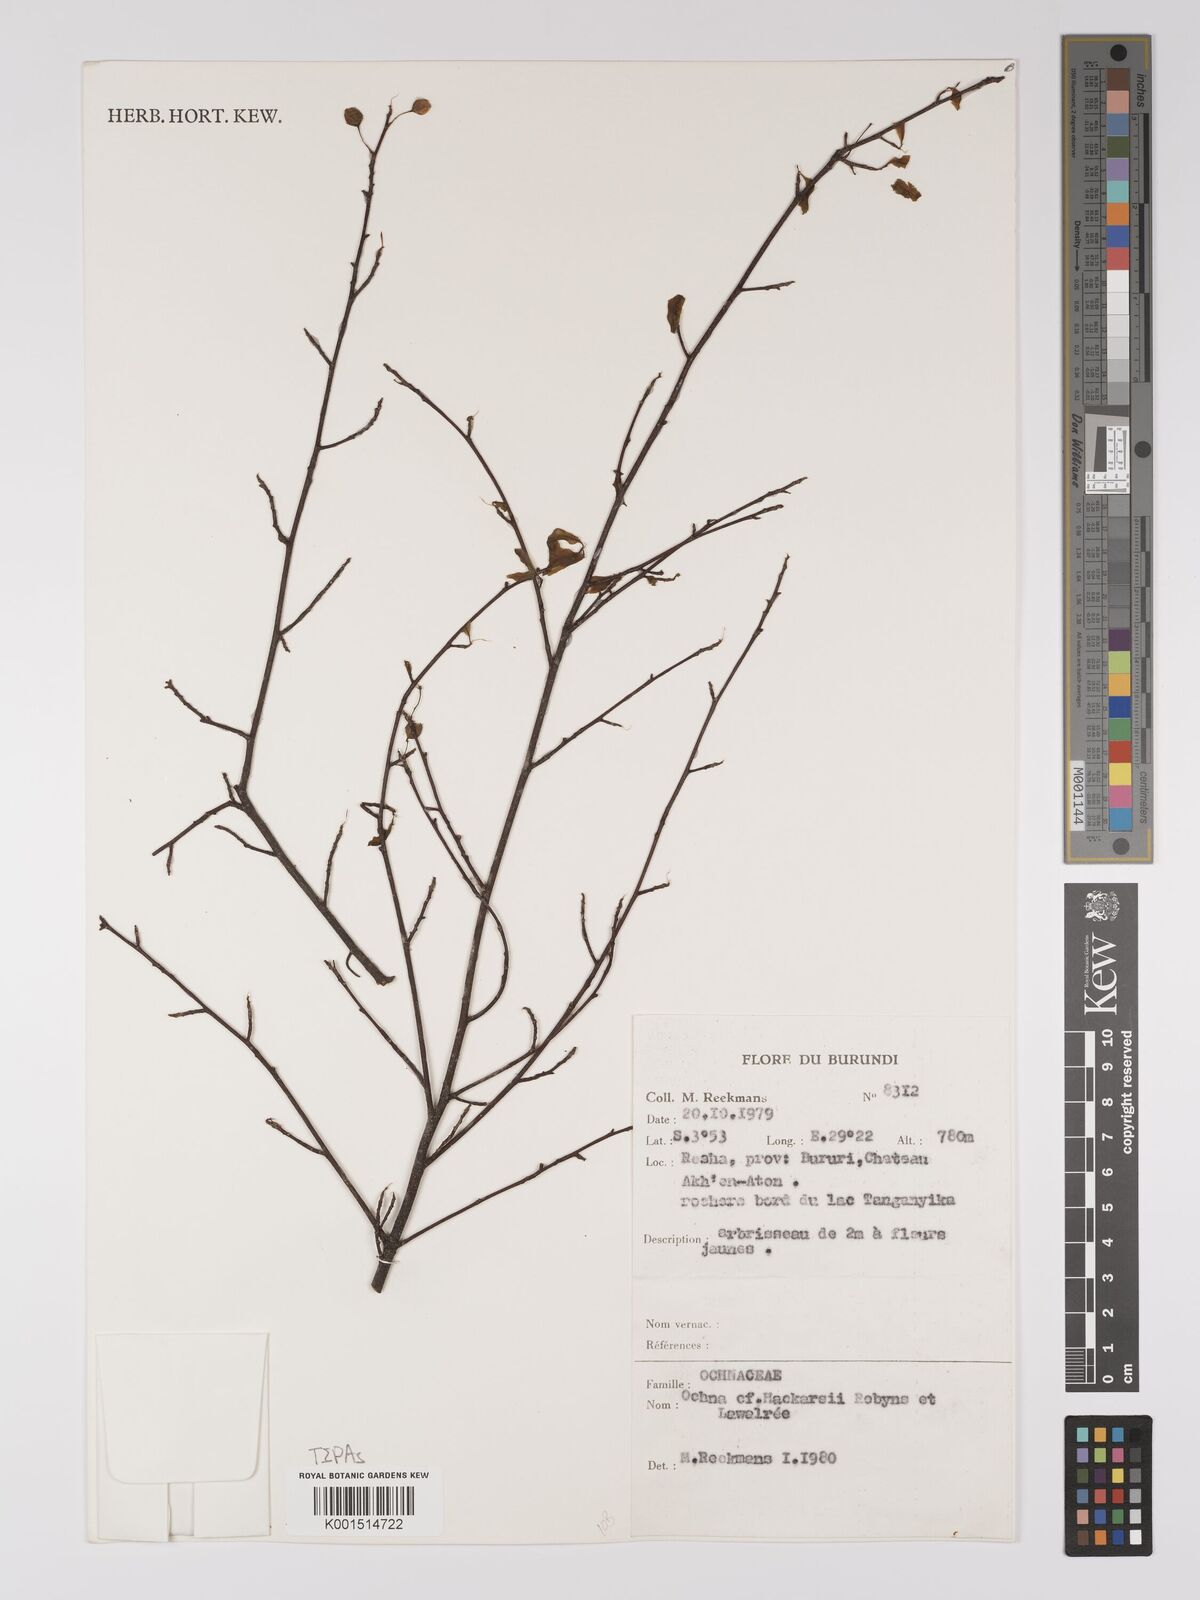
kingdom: Plantae
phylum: Tracheophyta
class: Magnoliopsida
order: Malpighiales
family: Ochnaceae
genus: Ochna
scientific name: Ochna hackarsii
